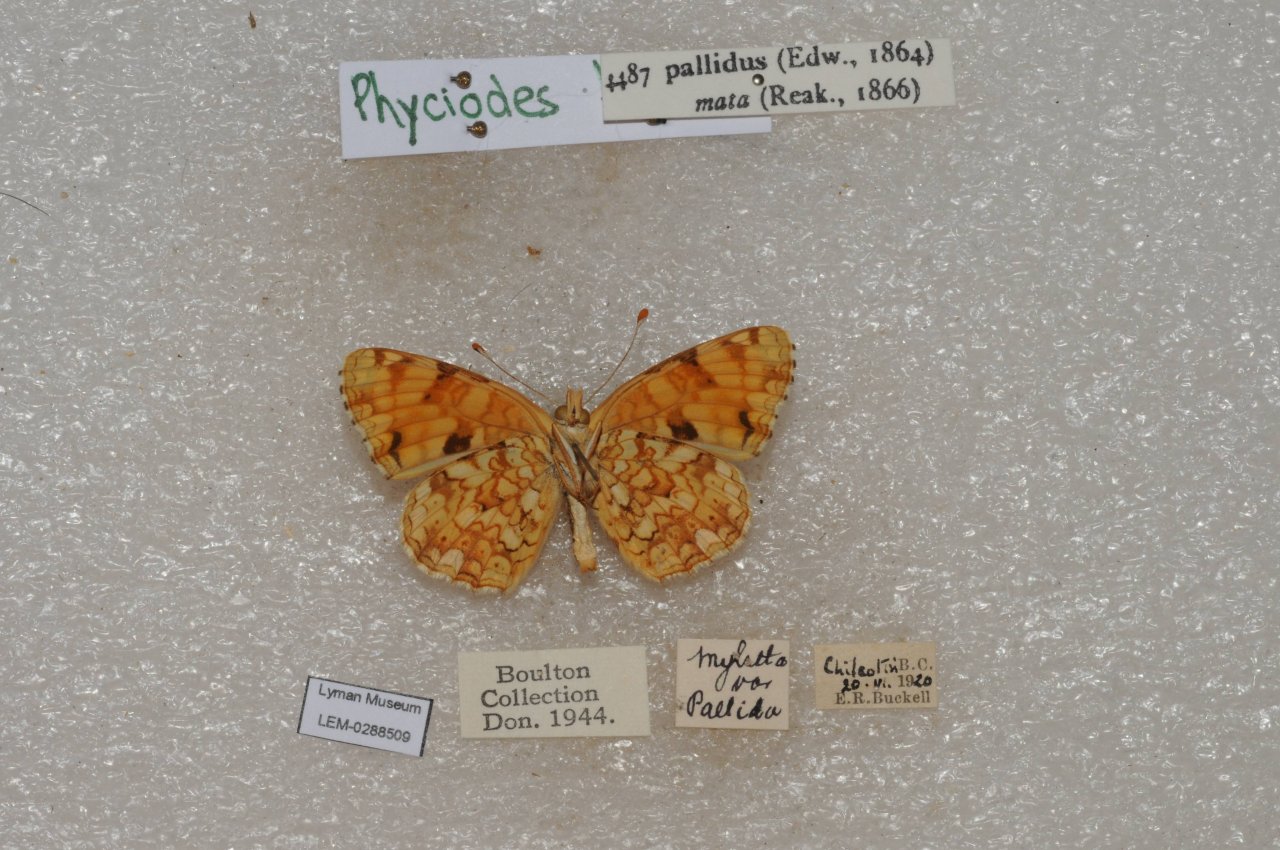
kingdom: Animalia
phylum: Arthropoda
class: Insecta
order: Lepidoptera
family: Nymphalidae
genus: Phyciodes
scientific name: Phyciodes pallida
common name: Pale Crescent
